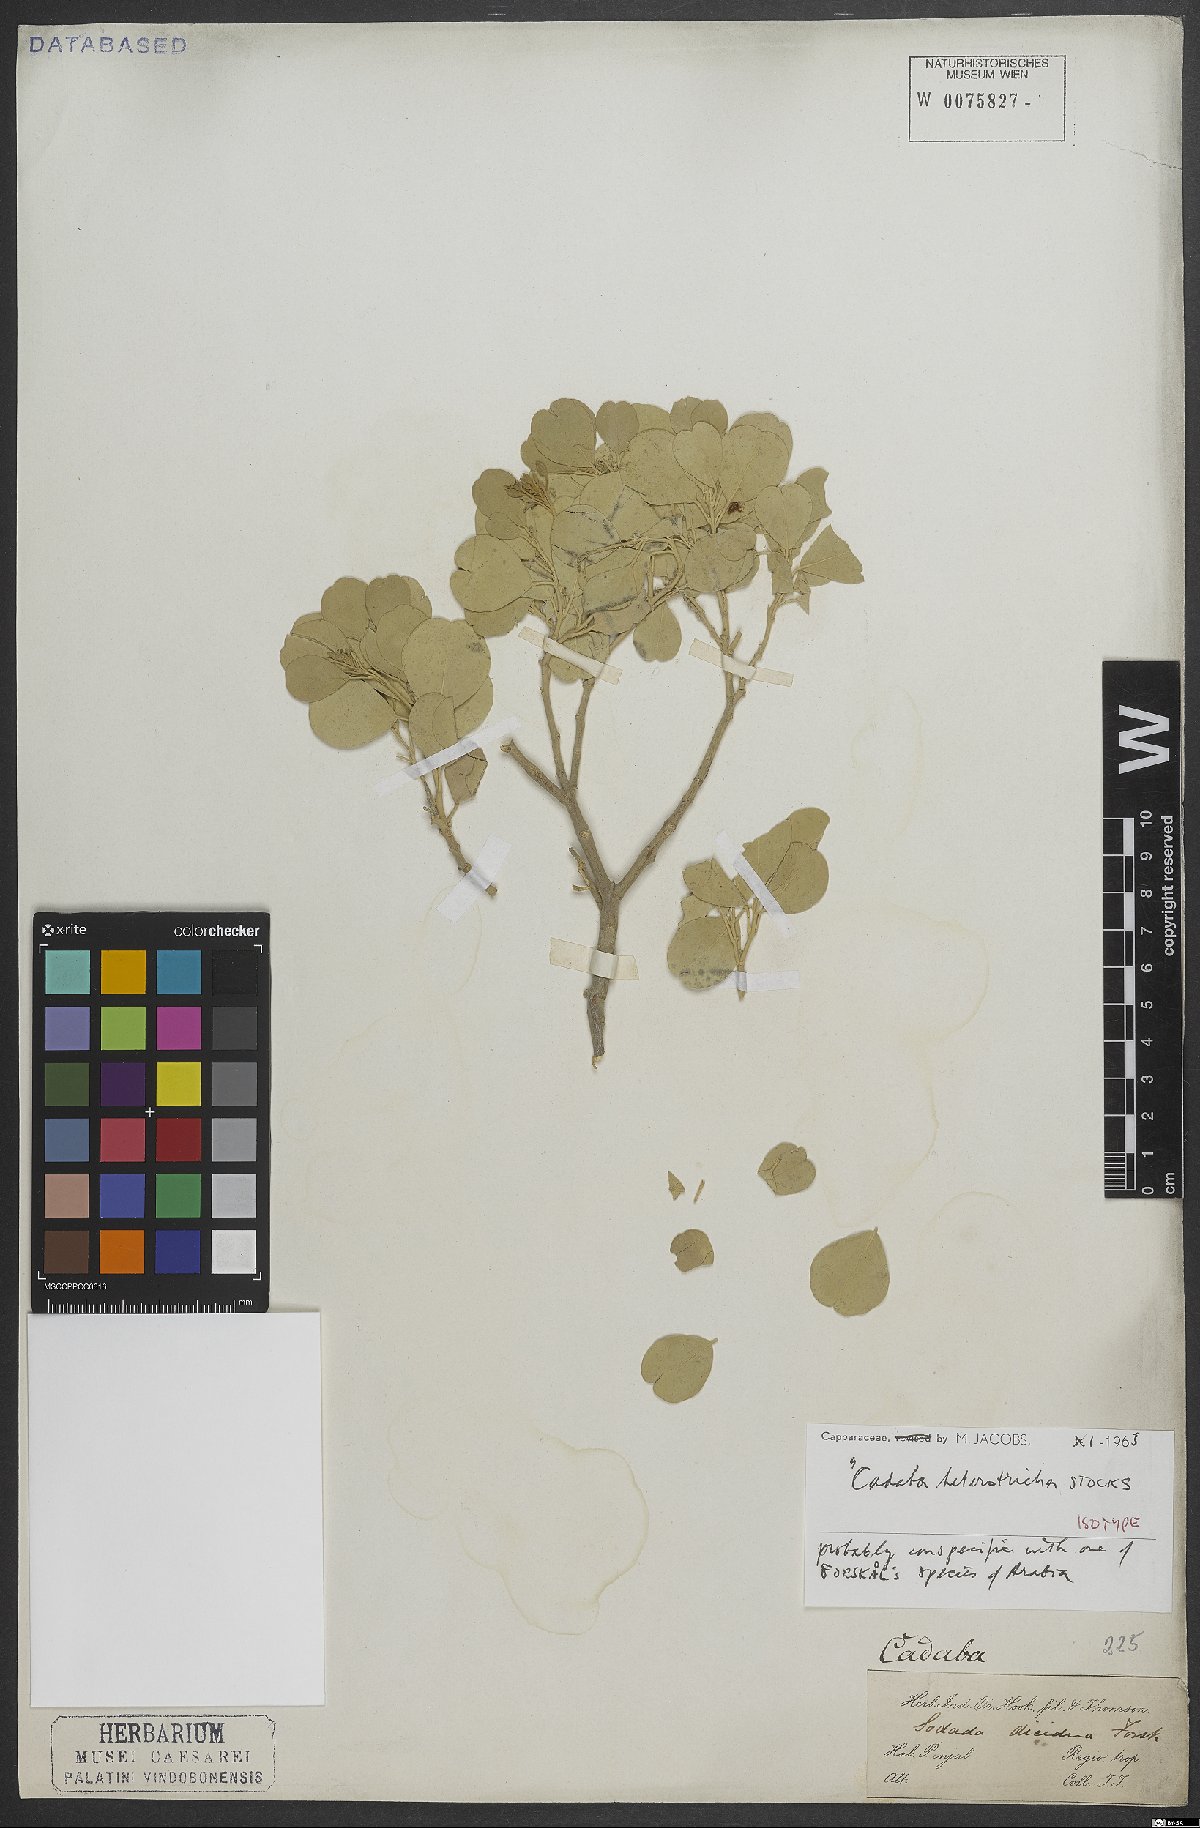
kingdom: Plantae
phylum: Tracheophyta
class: Magnoliopsida
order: Brassicales
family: Capparaceae
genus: Cadaba
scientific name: Cadaba linearifolia
